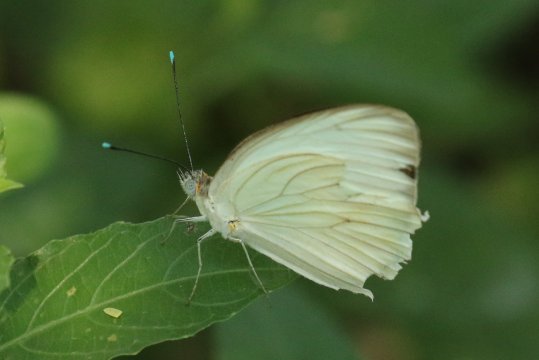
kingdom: Animalia
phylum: Arthropoda
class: Insecta
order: Lepidoptera
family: Pieridae
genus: Ascia
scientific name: Ascia monuste
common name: Great Southern White
